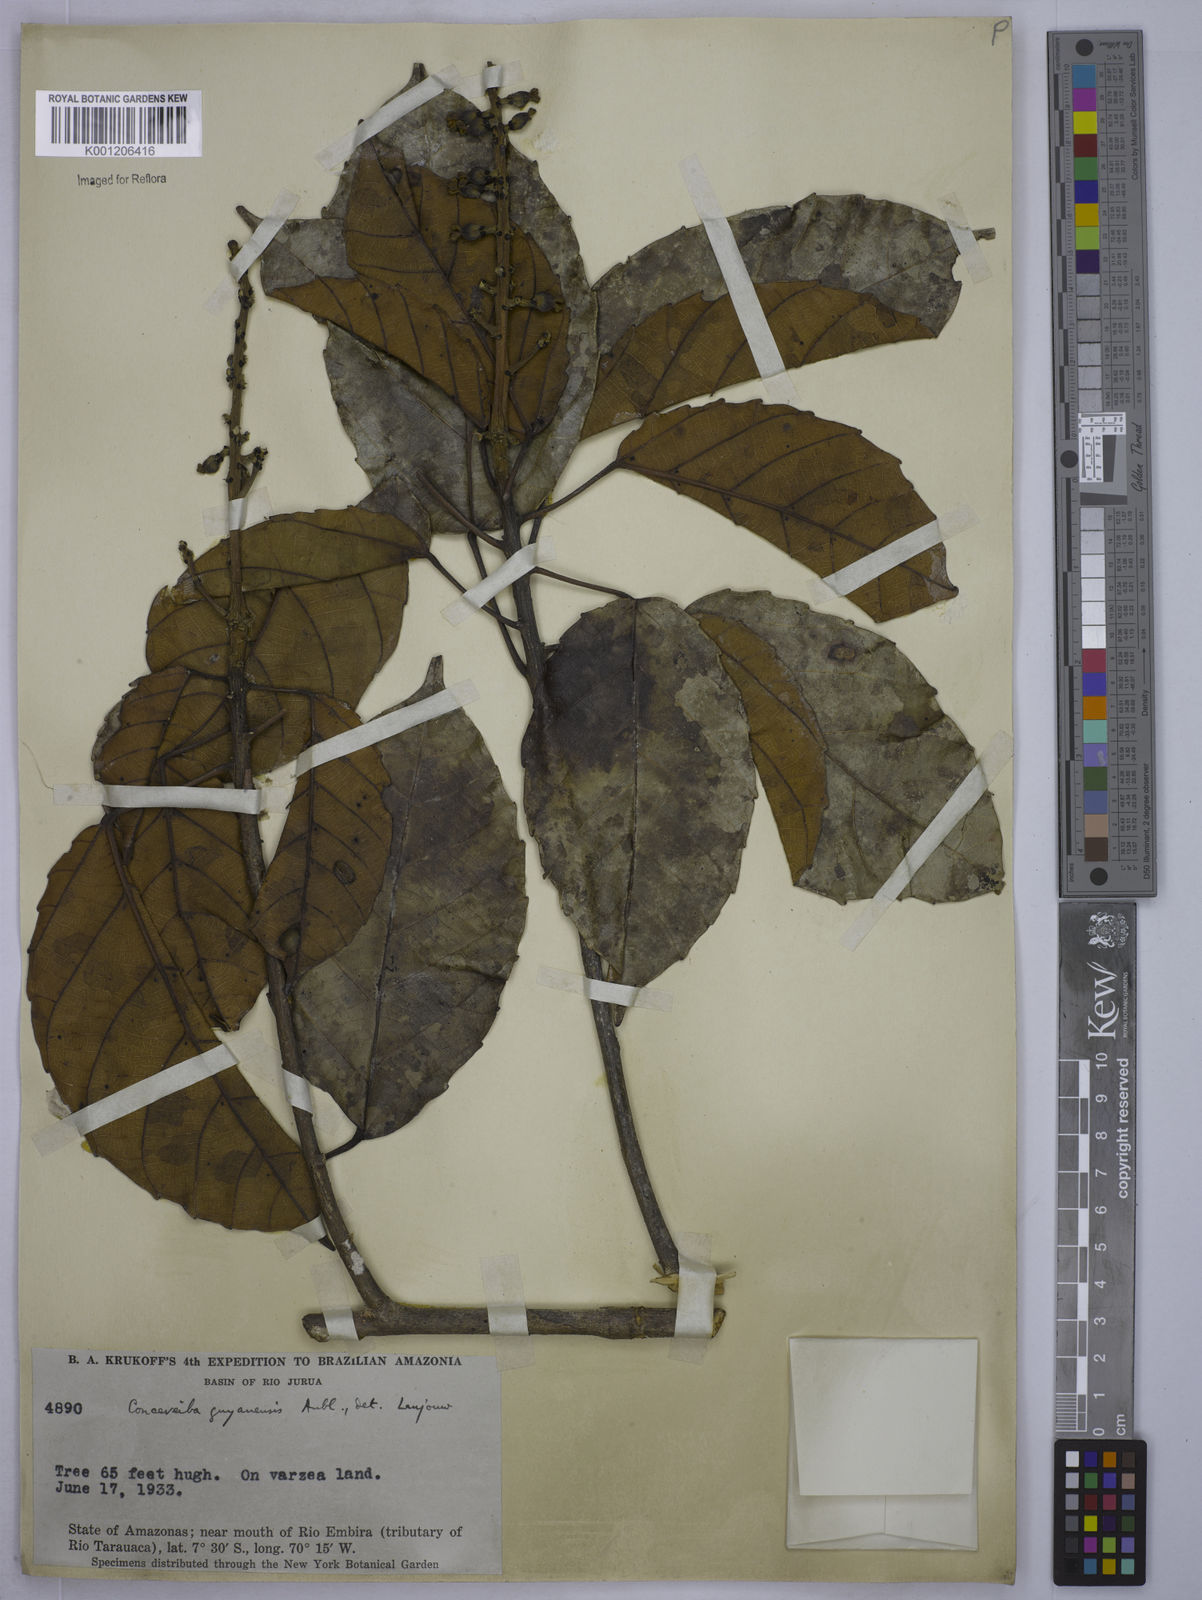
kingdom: Plantae
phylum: Tracheophyta
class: Magnoliopsida
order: Malpighiales
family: Euphorbiaceae
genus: Conceveiba
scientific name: Conceveiba guianensis
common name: Poatoru
